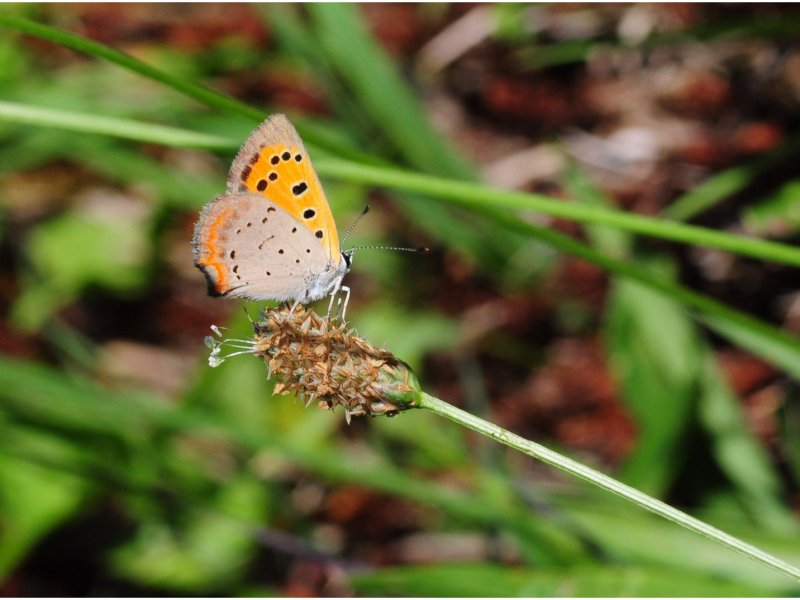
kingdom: Animalia
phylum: Arthropoda
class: Insecta
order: Lepidoptera
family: Lycaenidae
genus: Lycaena
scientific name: Lycaena phlaeas
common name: American Copper
